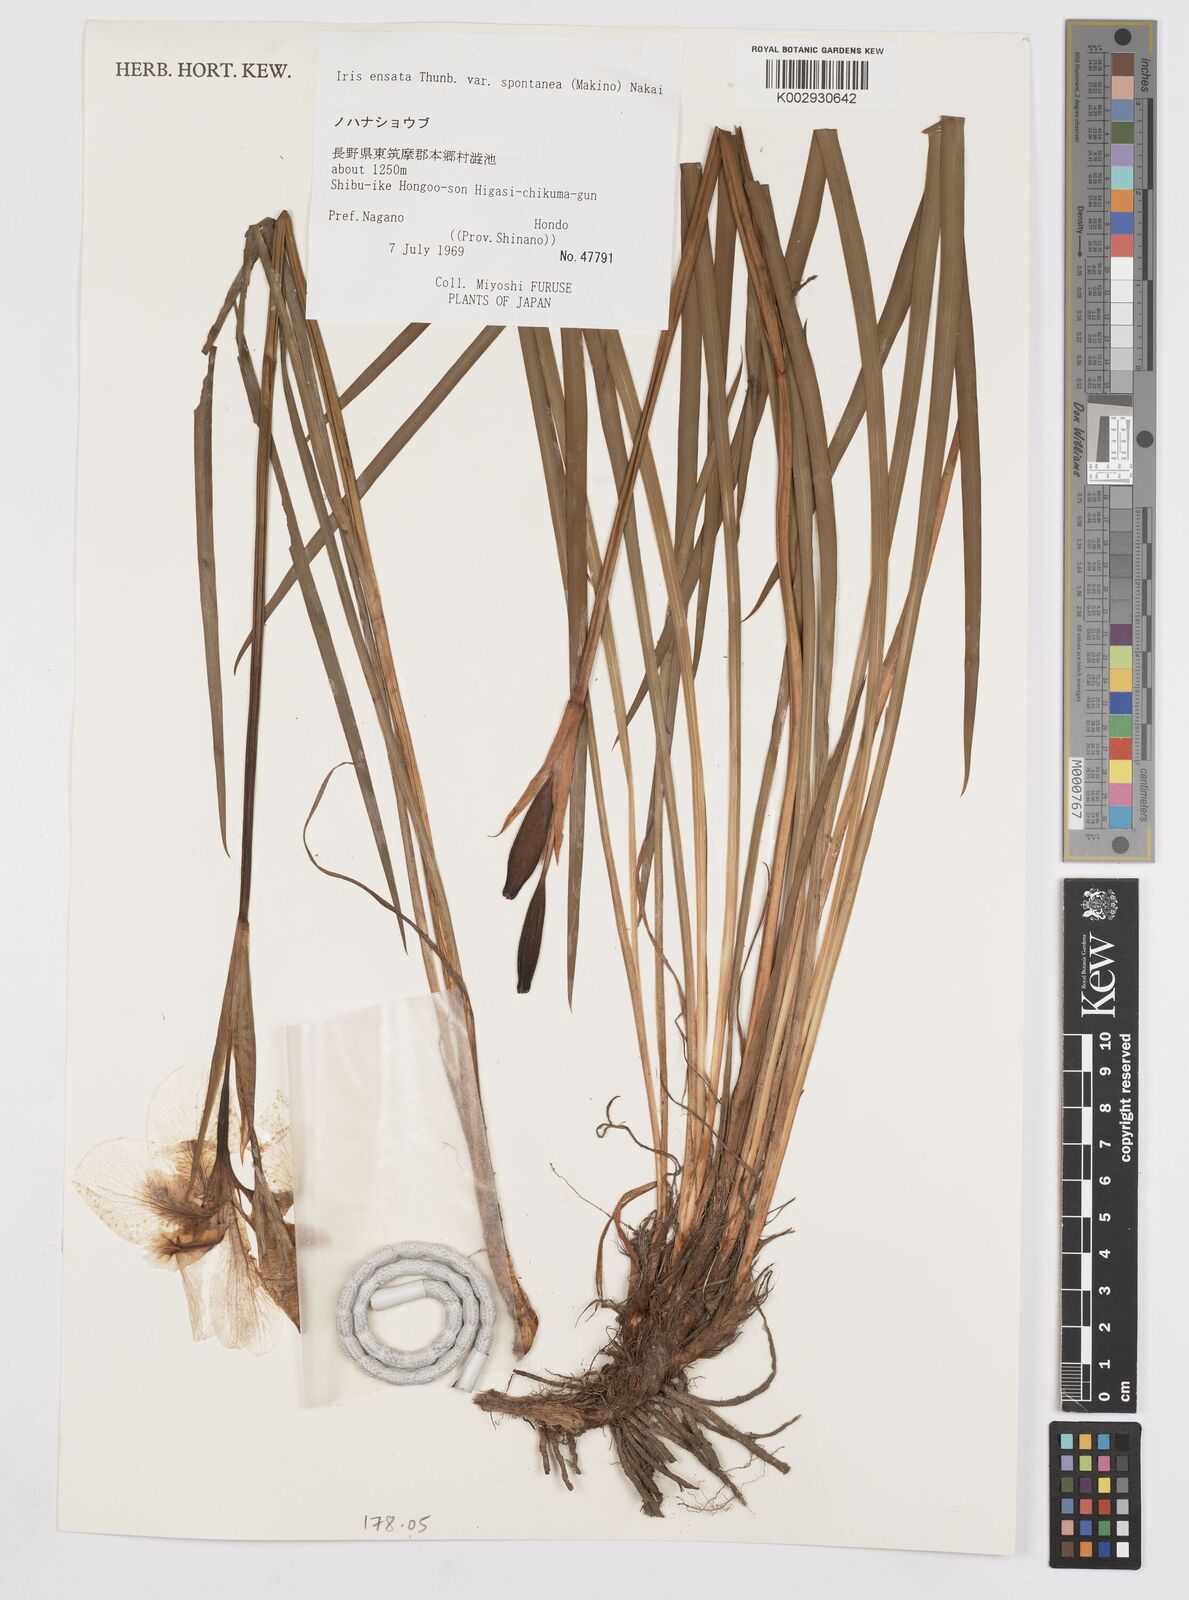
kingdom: Plantae
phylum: Tracheophyta
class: Liliopsida
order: Asparagales
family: Iridaceae
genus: Iris
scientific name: Iris lactea
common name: White-flower chinese iris
